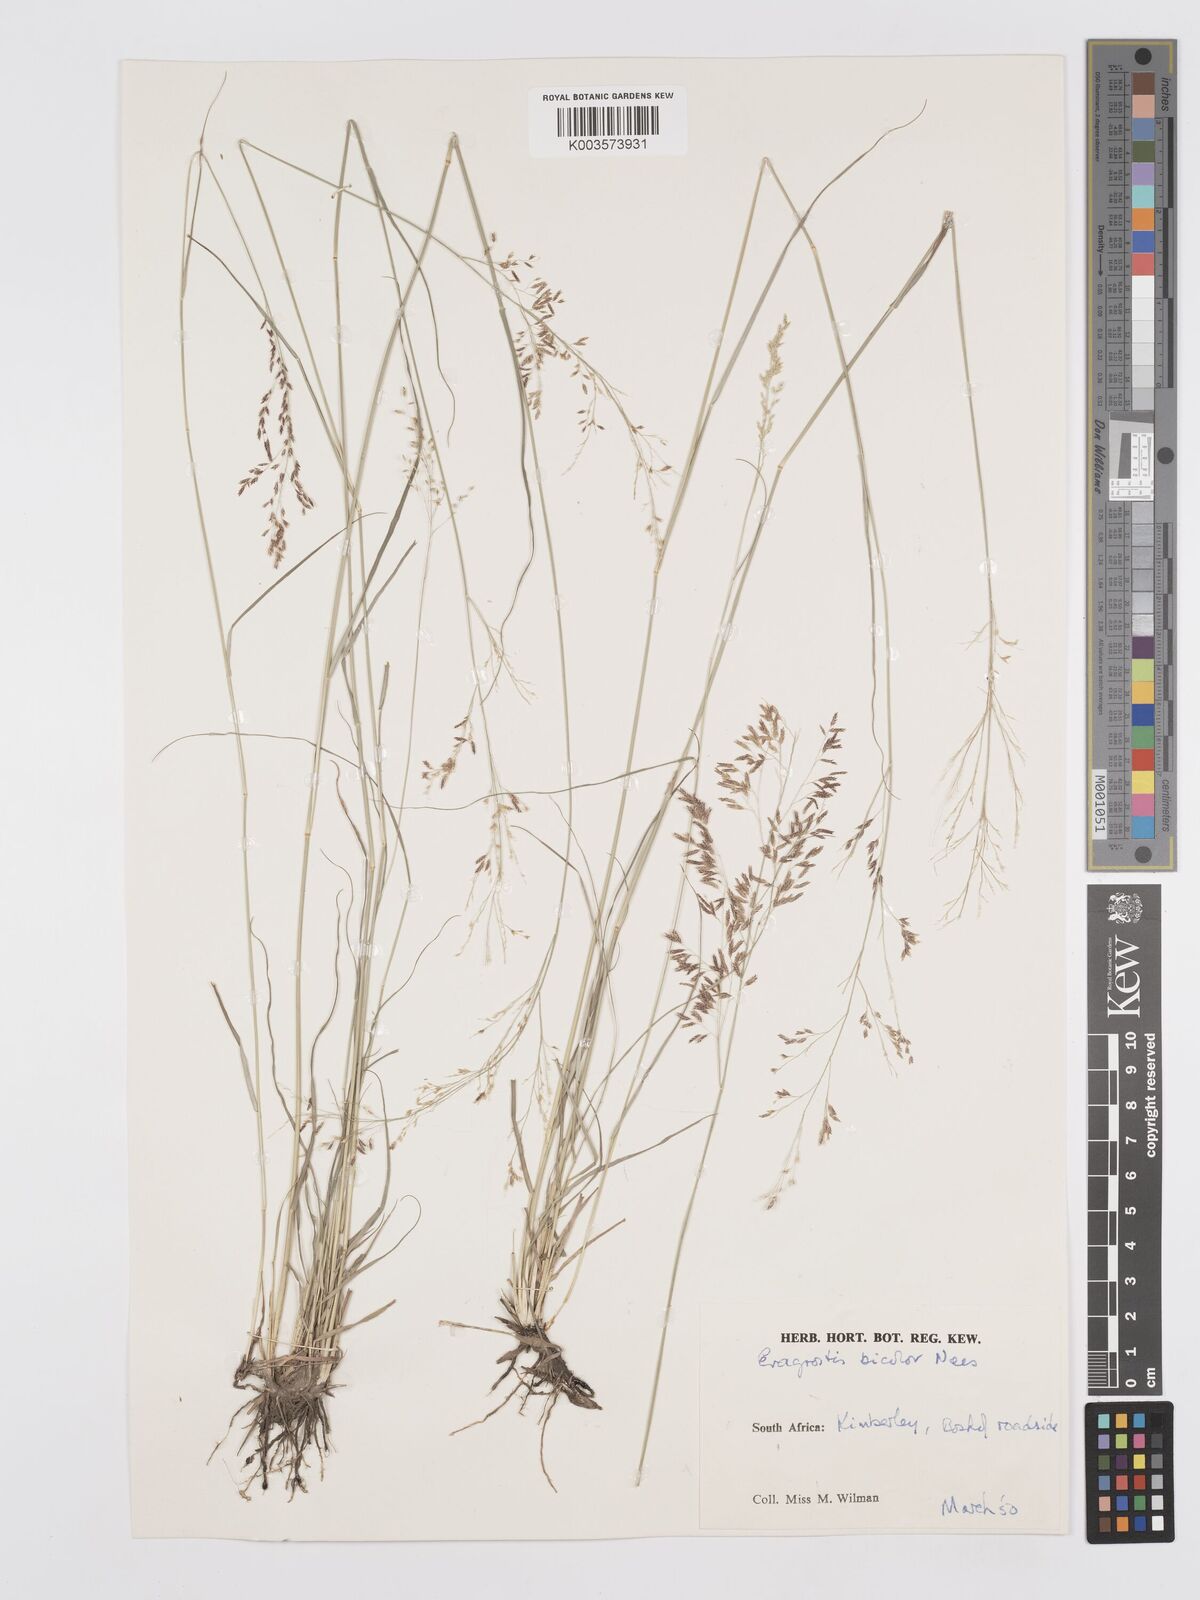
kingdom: Plantae
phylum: Tracheophyta
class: Liliopsida
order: Poales
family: Poaceae
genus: Eragrostis
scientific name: Eragrostis
